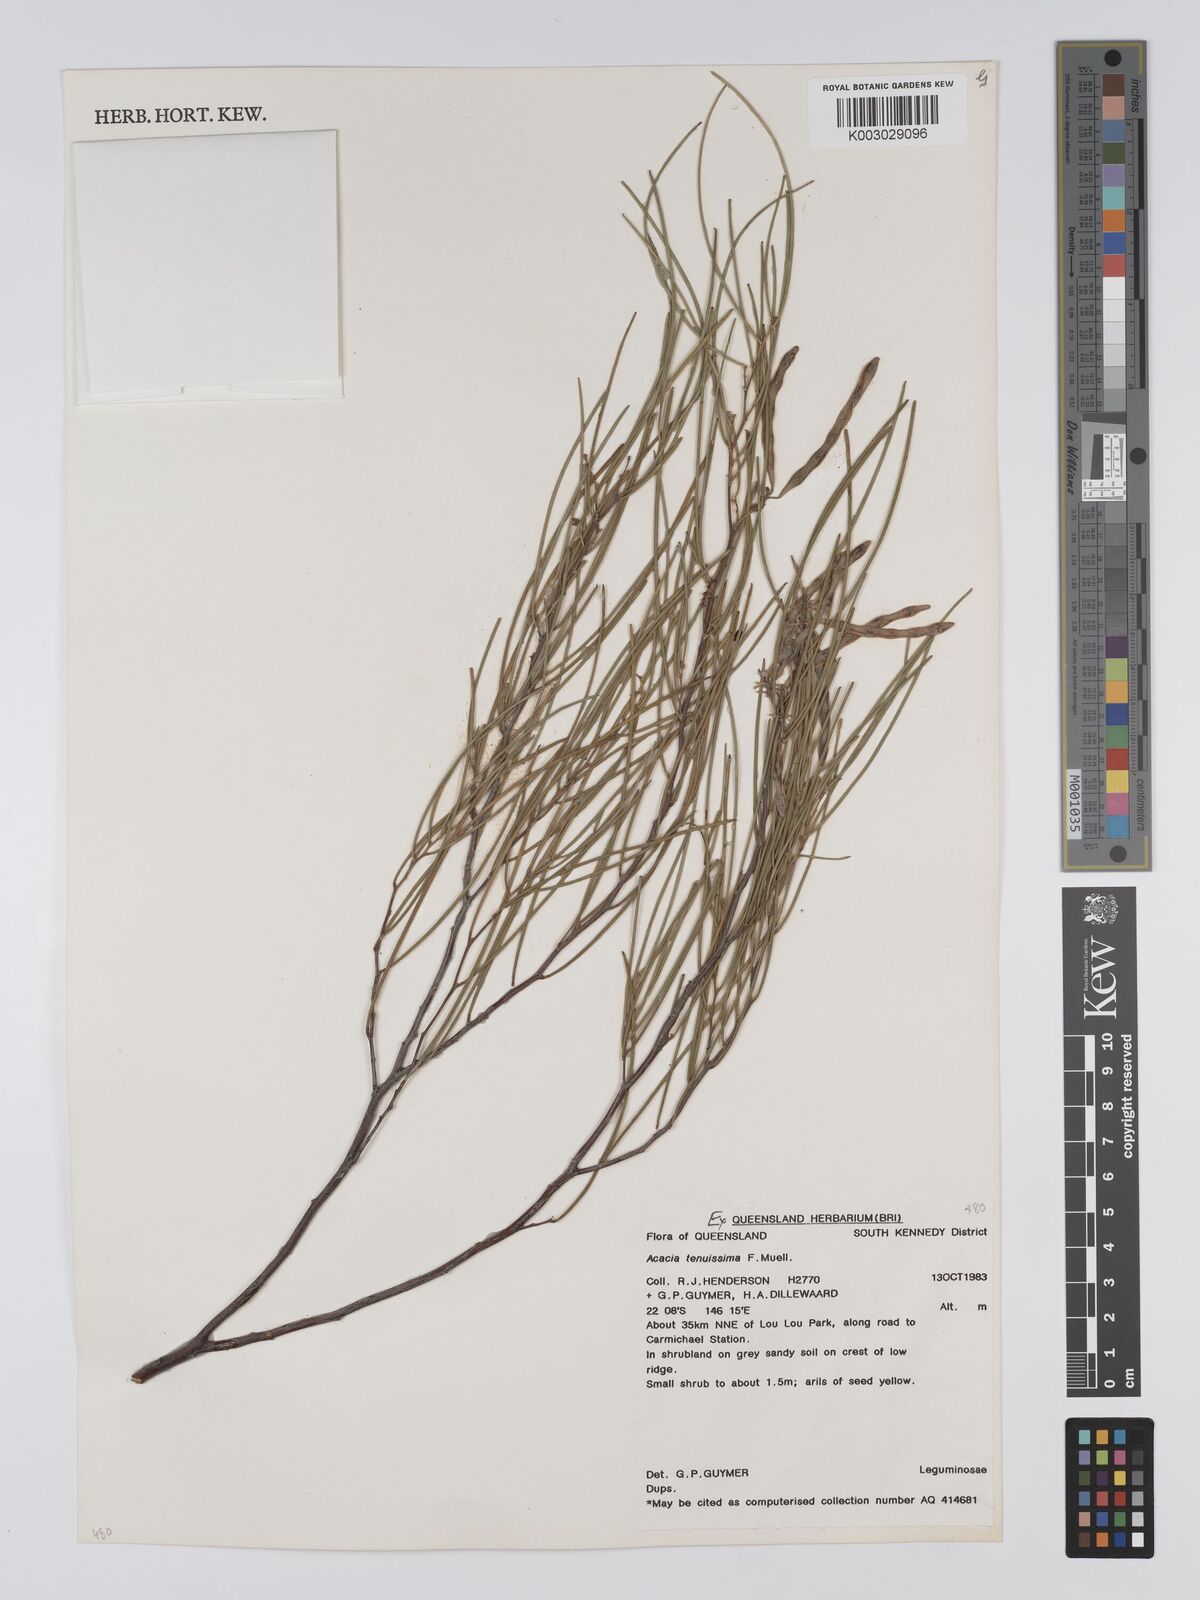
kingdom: Plantae
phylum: Tracheophyta
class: Magnoliopsida
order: Fabales
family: Fabaceae
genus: Acacia
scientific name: Acacia tenuissima
